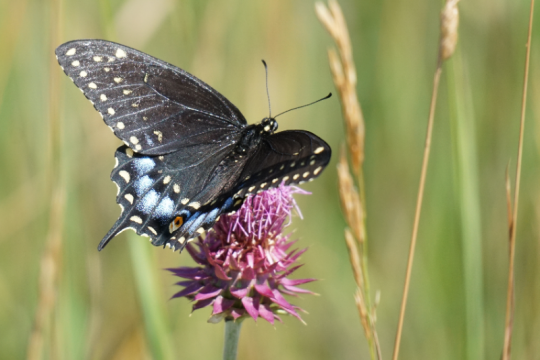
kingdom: Animalia
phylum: Arthropoda
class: Insecta
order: Lepidoptera
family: Papilionidae
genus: Papilio
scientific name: Papilio polyxenes
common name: Black Swallowtail
